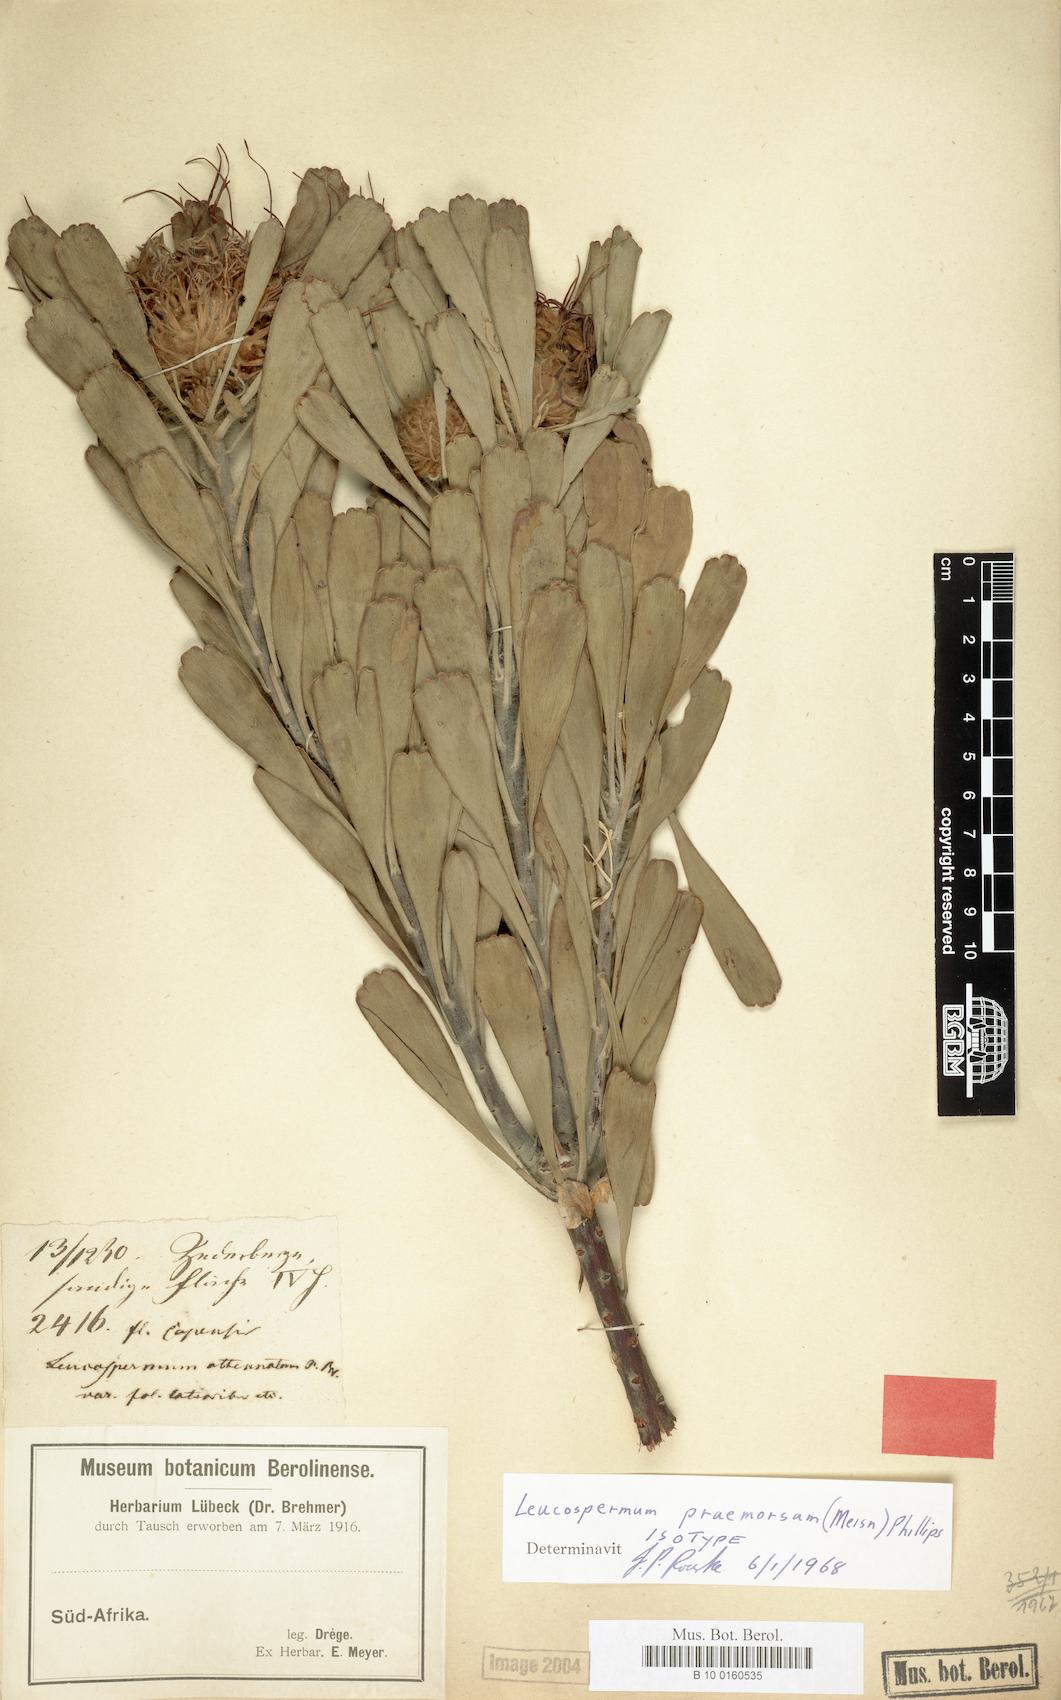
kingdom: Plantae
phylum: Tracheophyta
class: Magnoliopsida
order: Proteales
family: Proteaceae
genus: Leucospermum
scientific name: Leucospermum praemorsum
